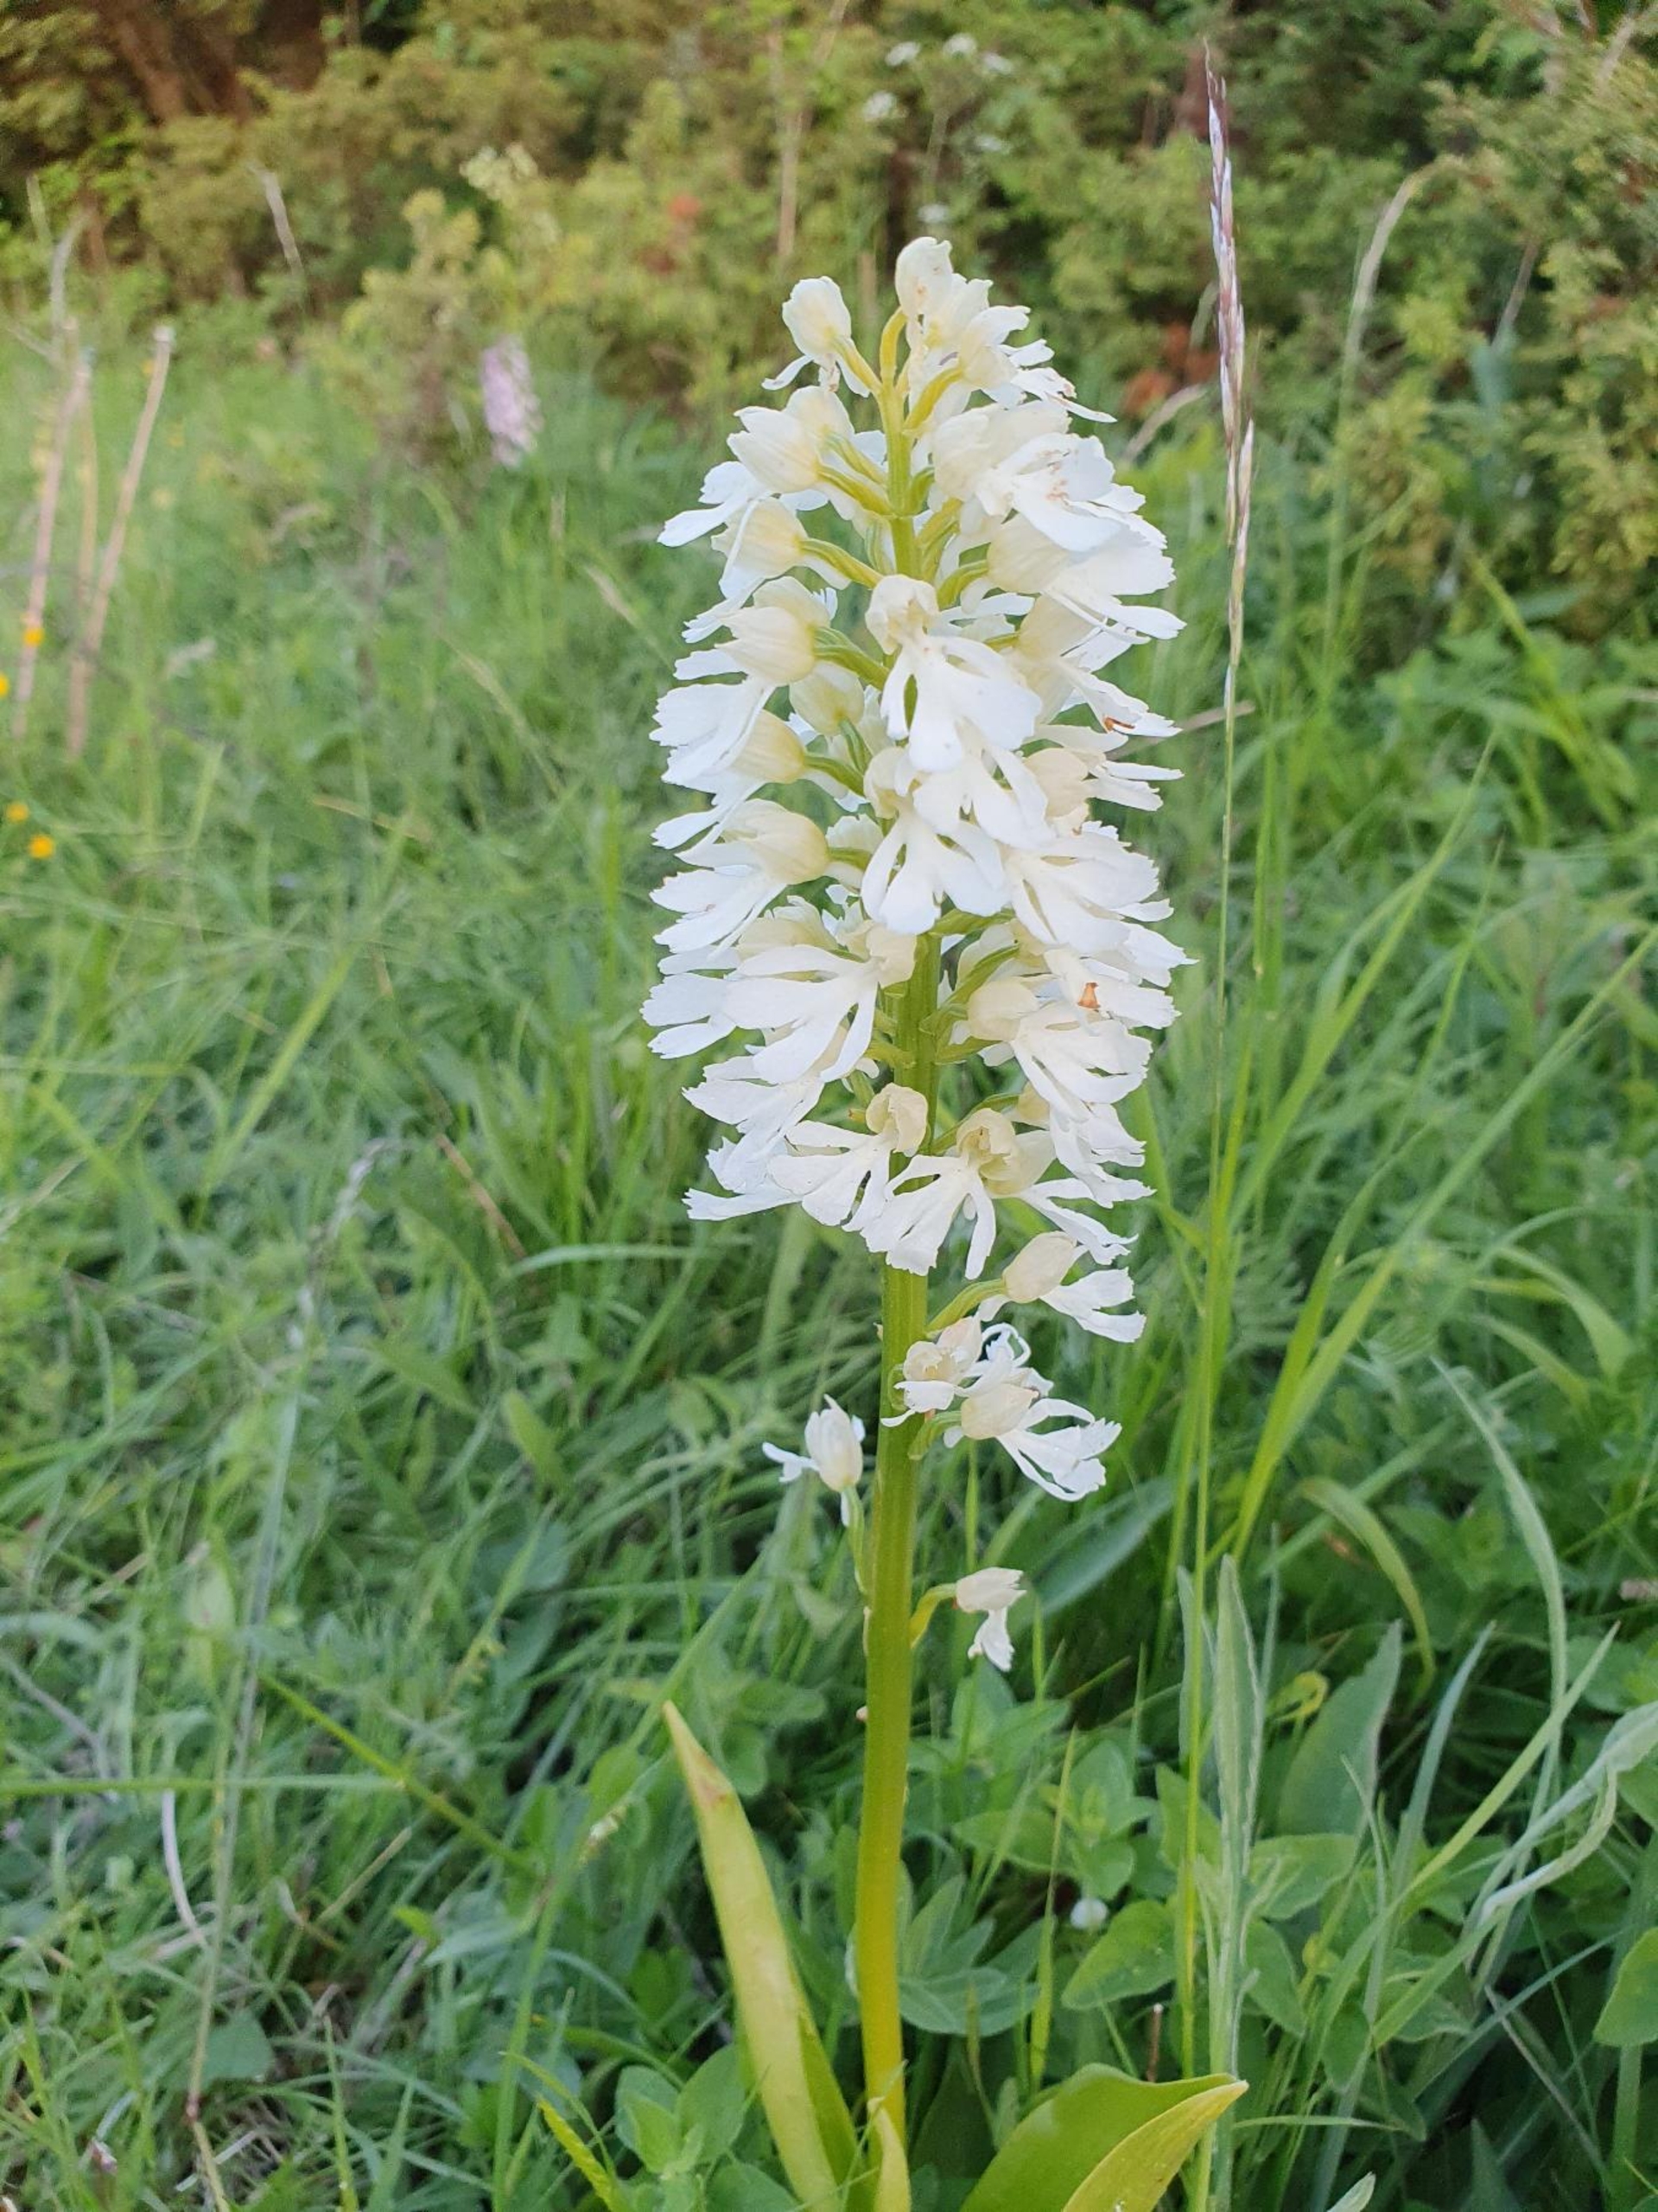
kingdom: Plantae
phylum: Tracheophyta
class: Liliopsida
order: Asparagales
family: Orchidaceae
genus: Orchis
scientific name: Orchis purpurea
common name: Stor gøgeurt
